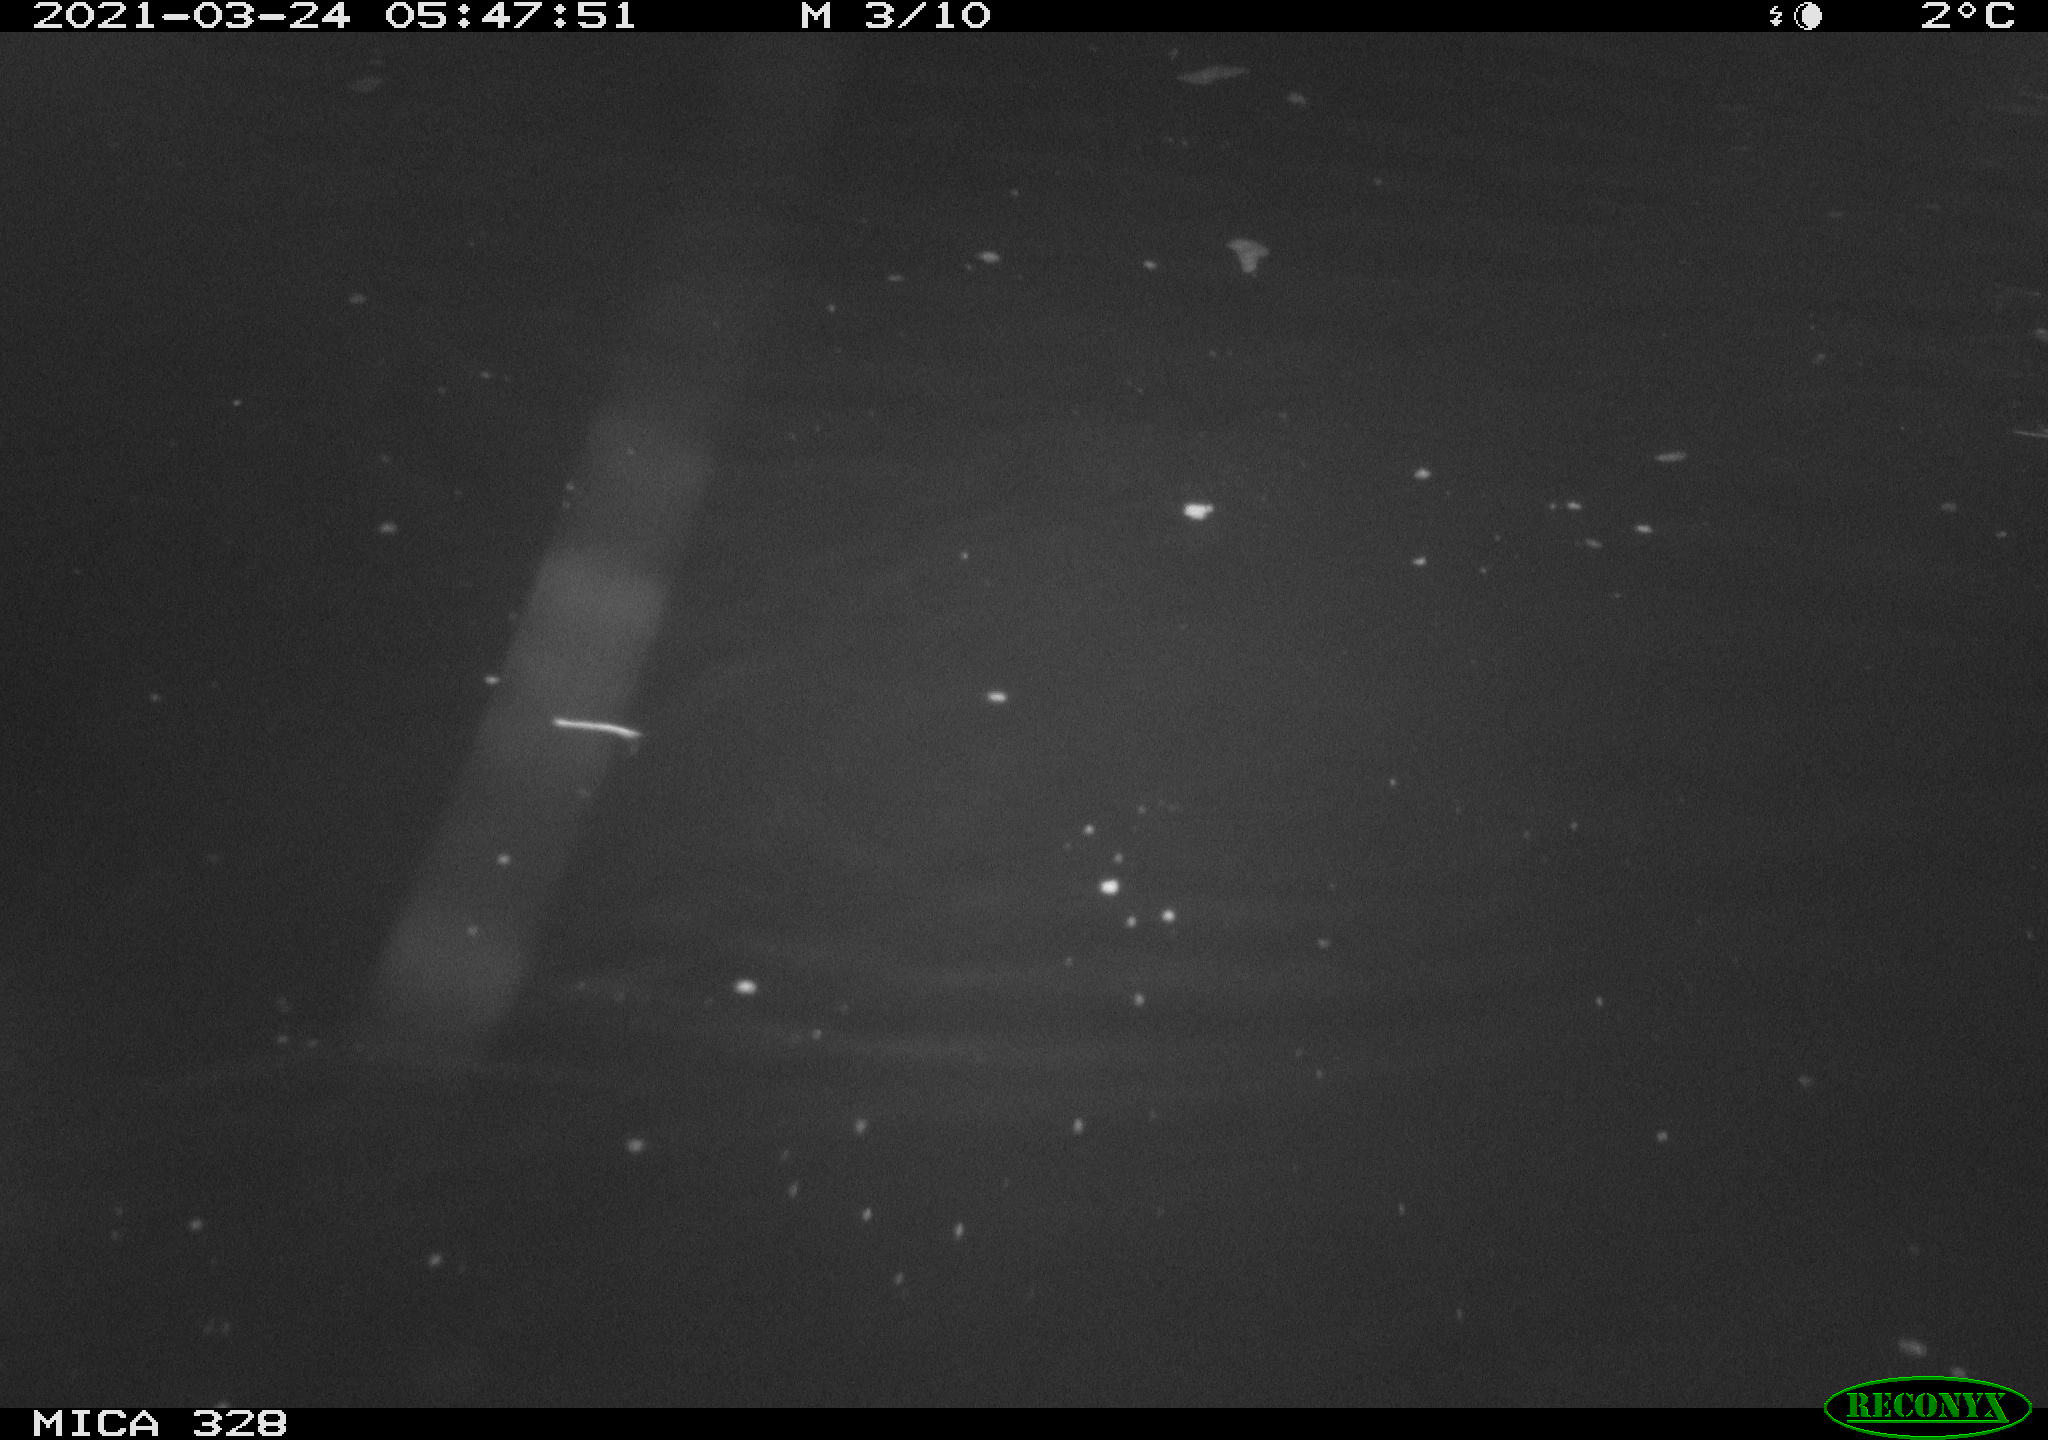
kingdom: Animalia
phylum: Chordata
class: Aves
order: Anseriformes
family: Anatidae
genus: Anas
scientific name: Anas
